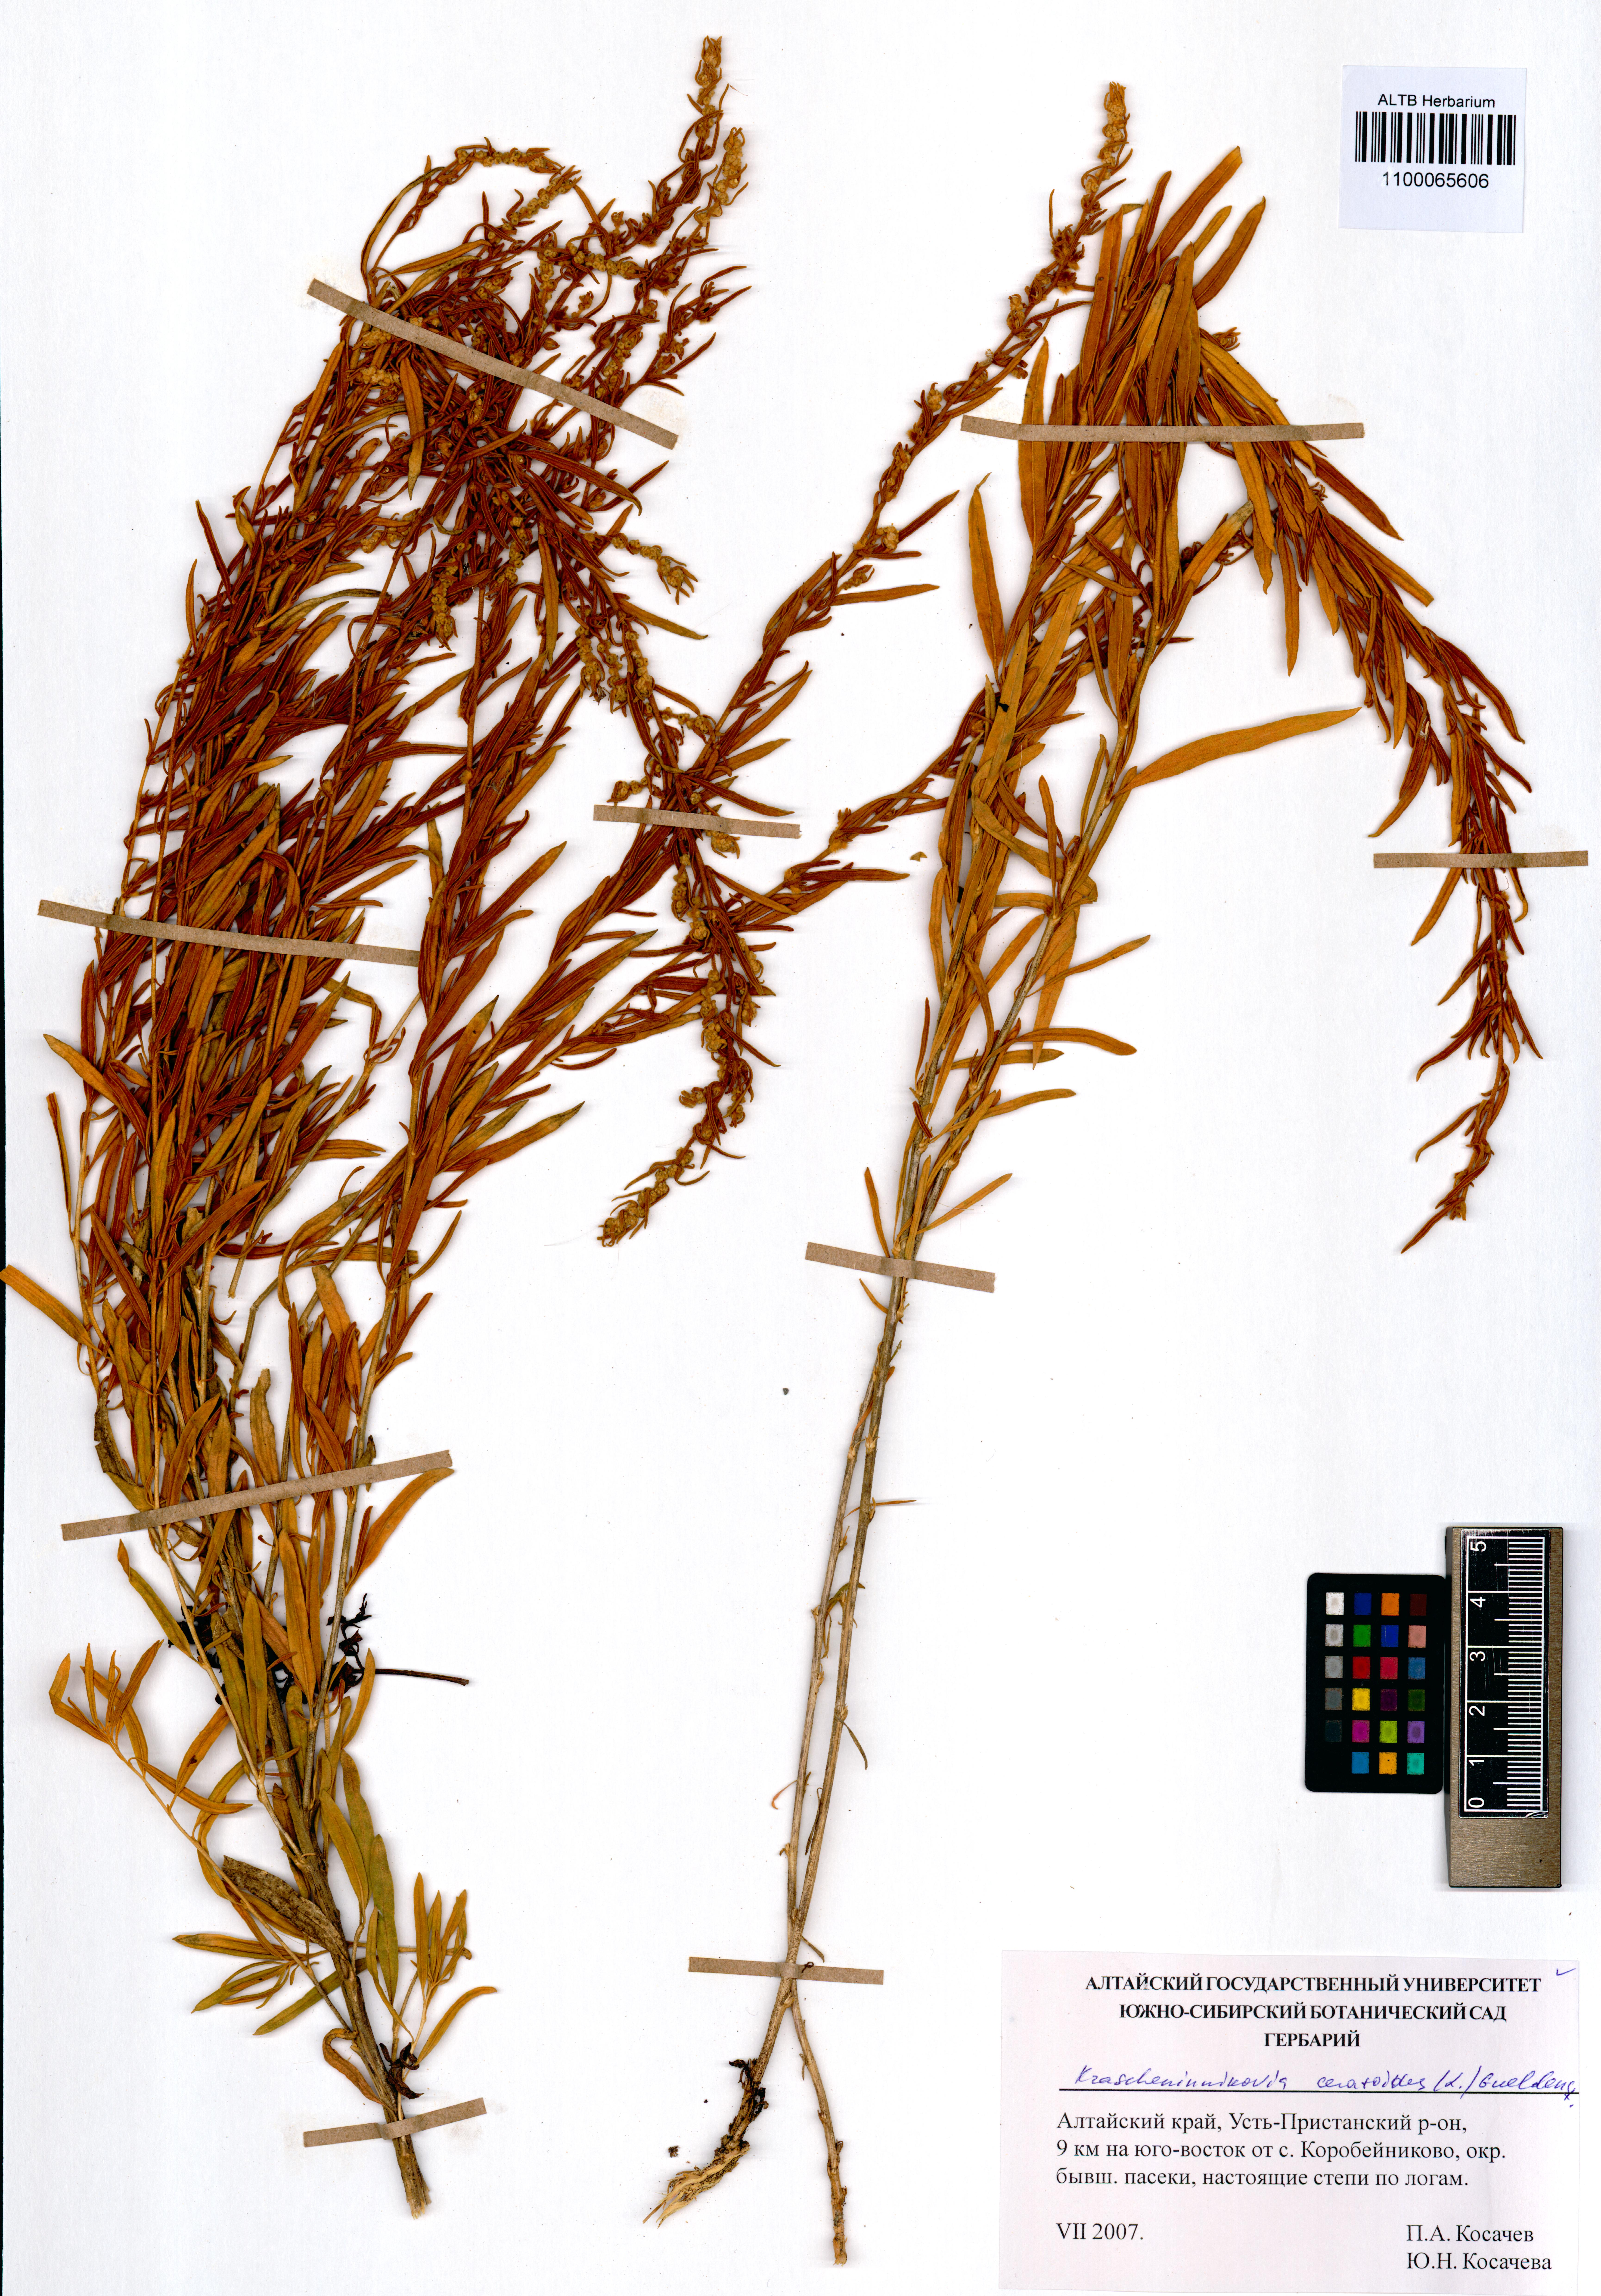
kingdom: Plantae
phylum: Tracheophyta
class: Magnoliopsida
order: Caryophyllales
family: Amaranthaceae
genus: Krascheninnikovia
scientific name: Krascheninnikovia ceratoides
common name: Pamirian winterfat
